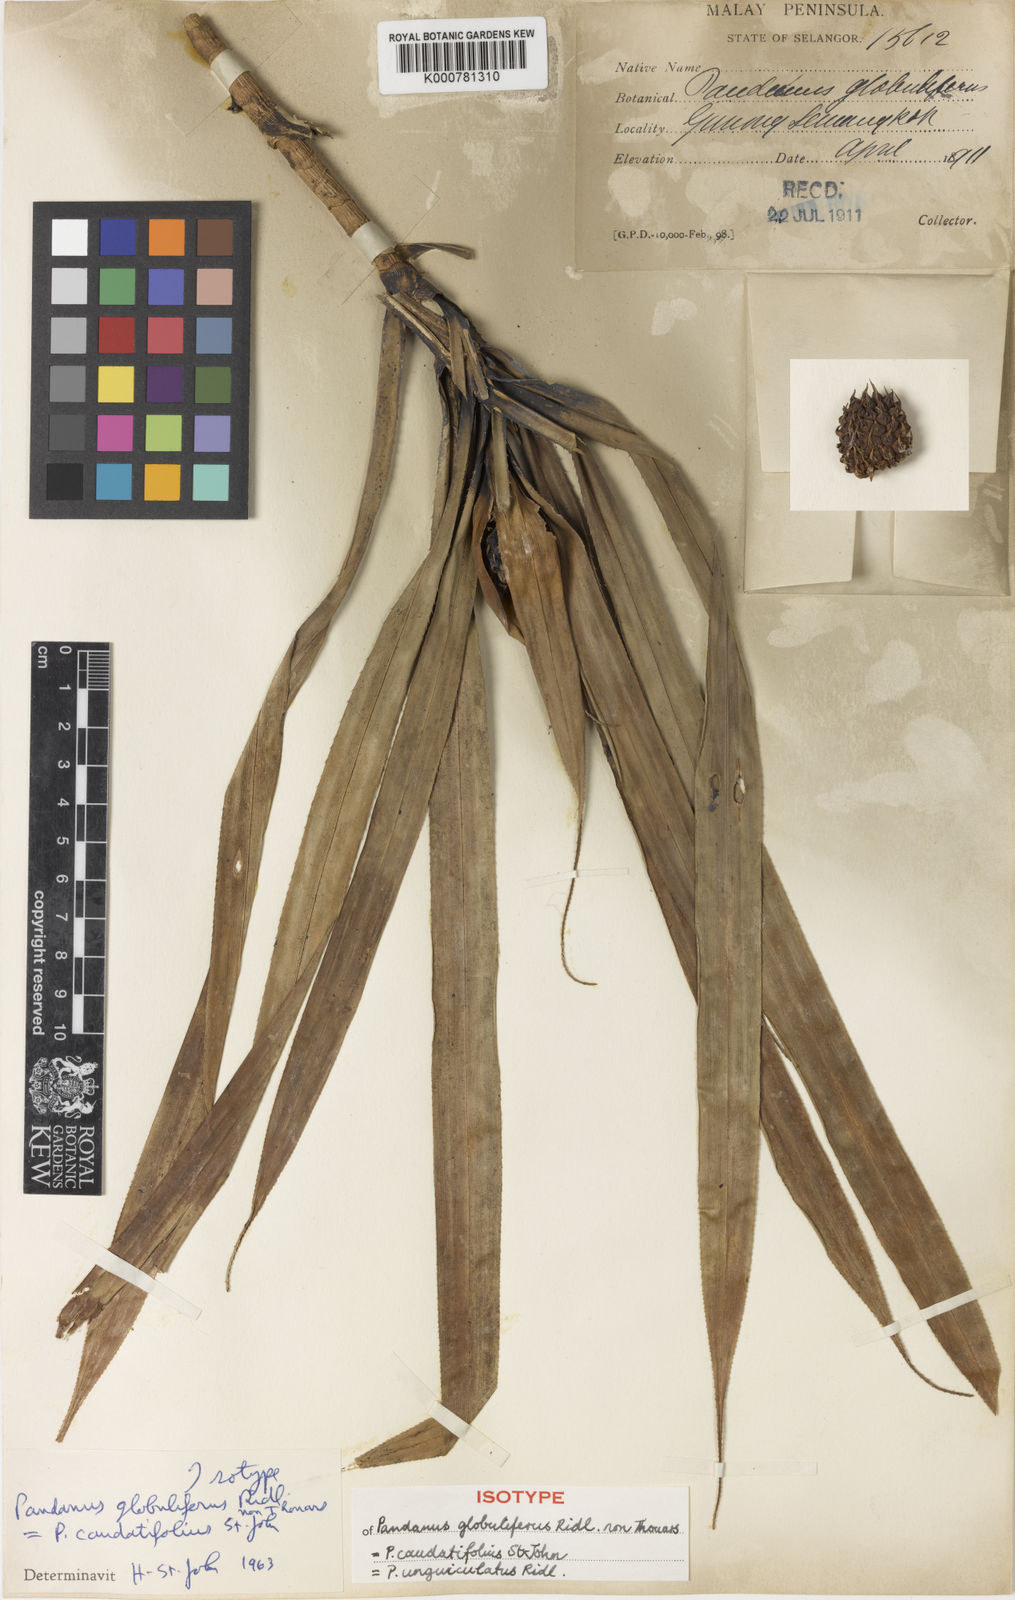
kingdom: Plantae
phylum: Tracheophyta
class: Liliopsida
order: Pandanales
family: Pandanaceae
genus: Benstonea
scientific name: Benstonea unguiculata
